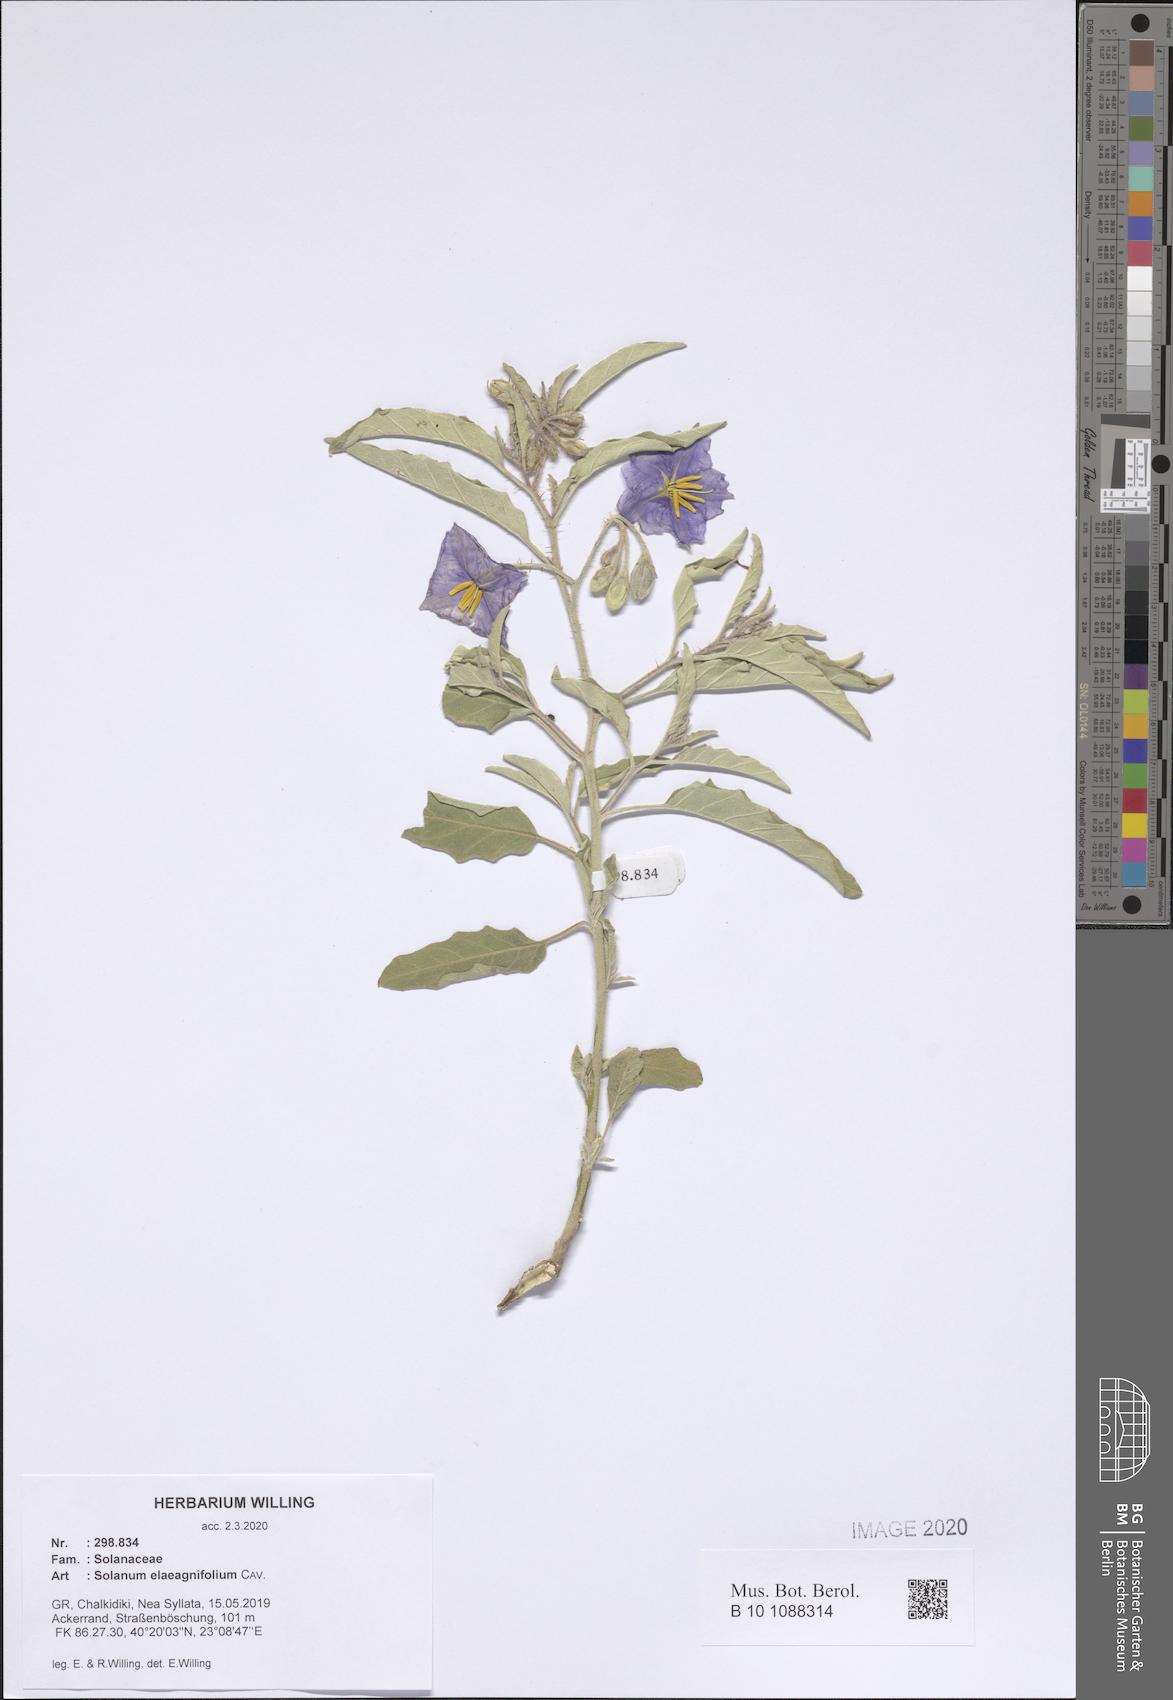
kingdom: Plantae
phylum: Tracheophyta
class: Magnoliopsida
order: Solanales
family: Solanaceae
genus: Solanum
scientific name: Solanum elaeagnifolium
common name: Silverleaf nightshade
